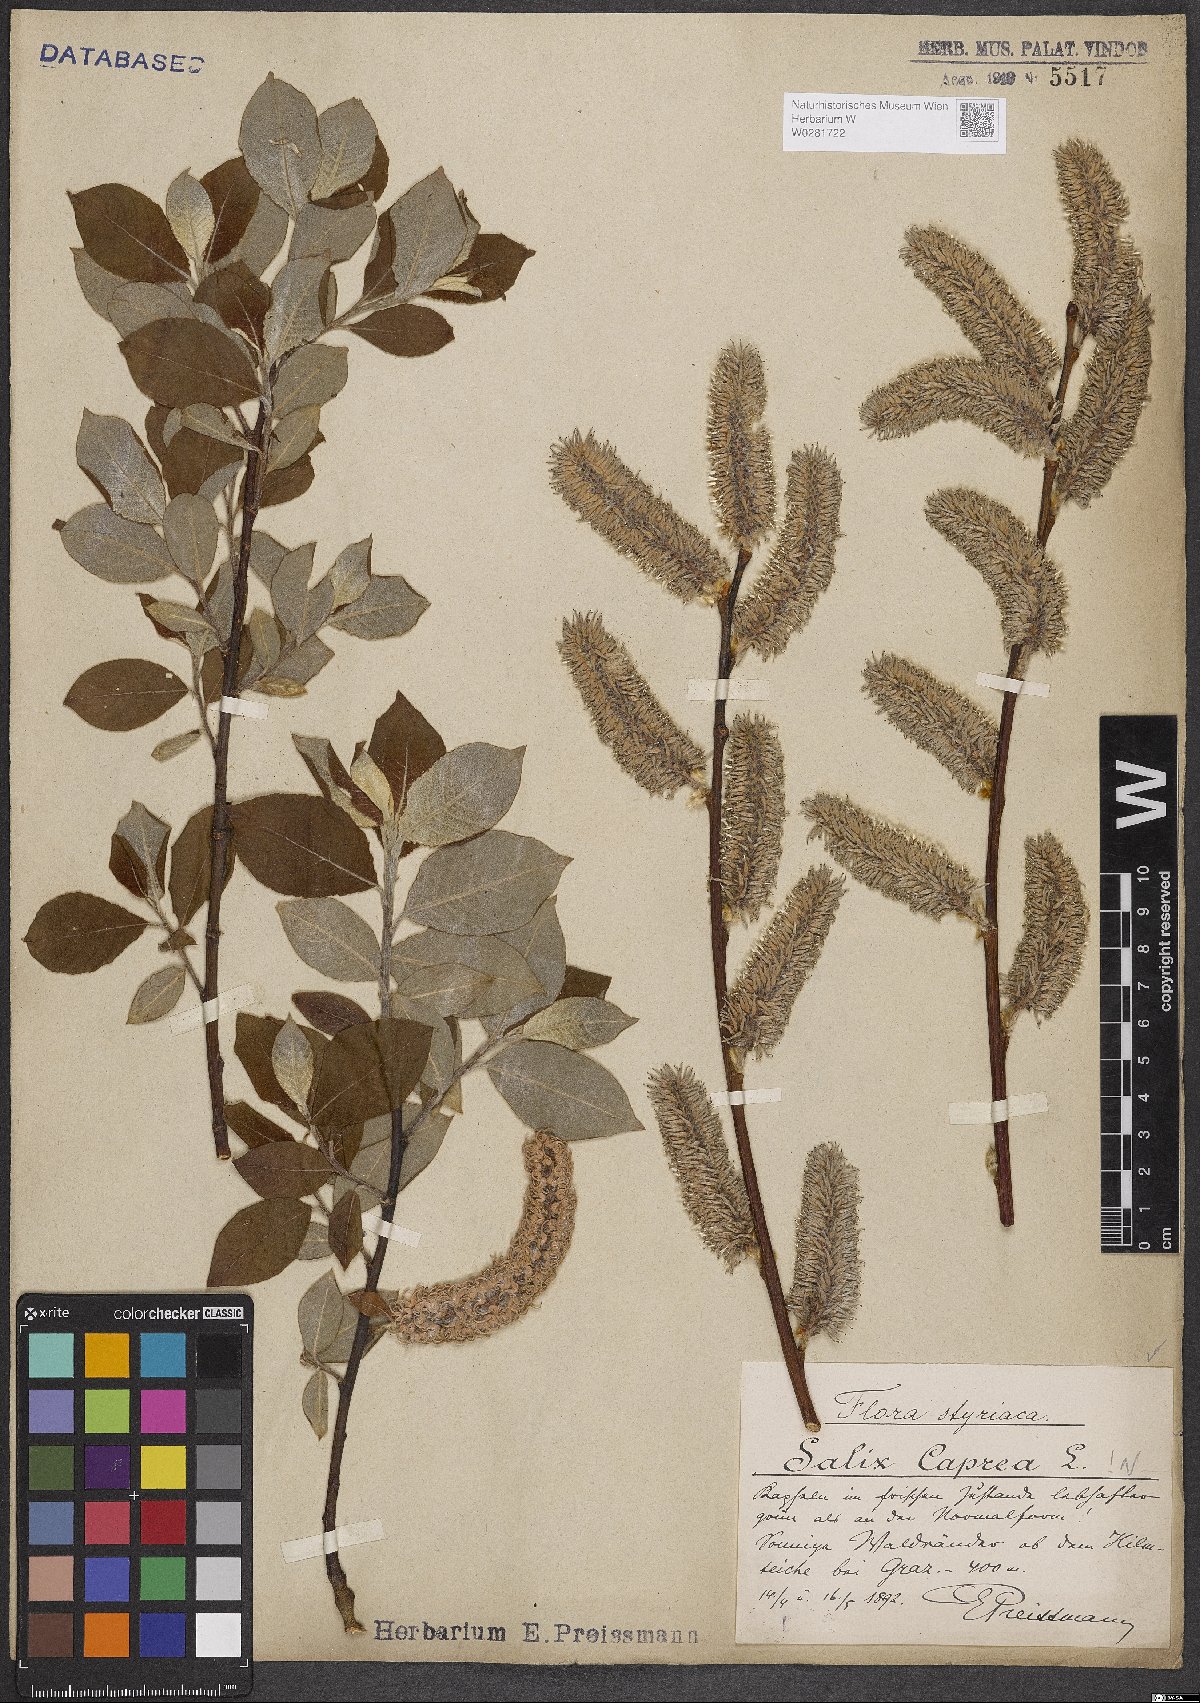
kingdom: Plantae
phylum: Tracheophyta
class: Magnoliopsida
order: Malpighiales
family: Salicaceae
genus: Salix
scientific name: Salix caprea
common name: Goat willow
